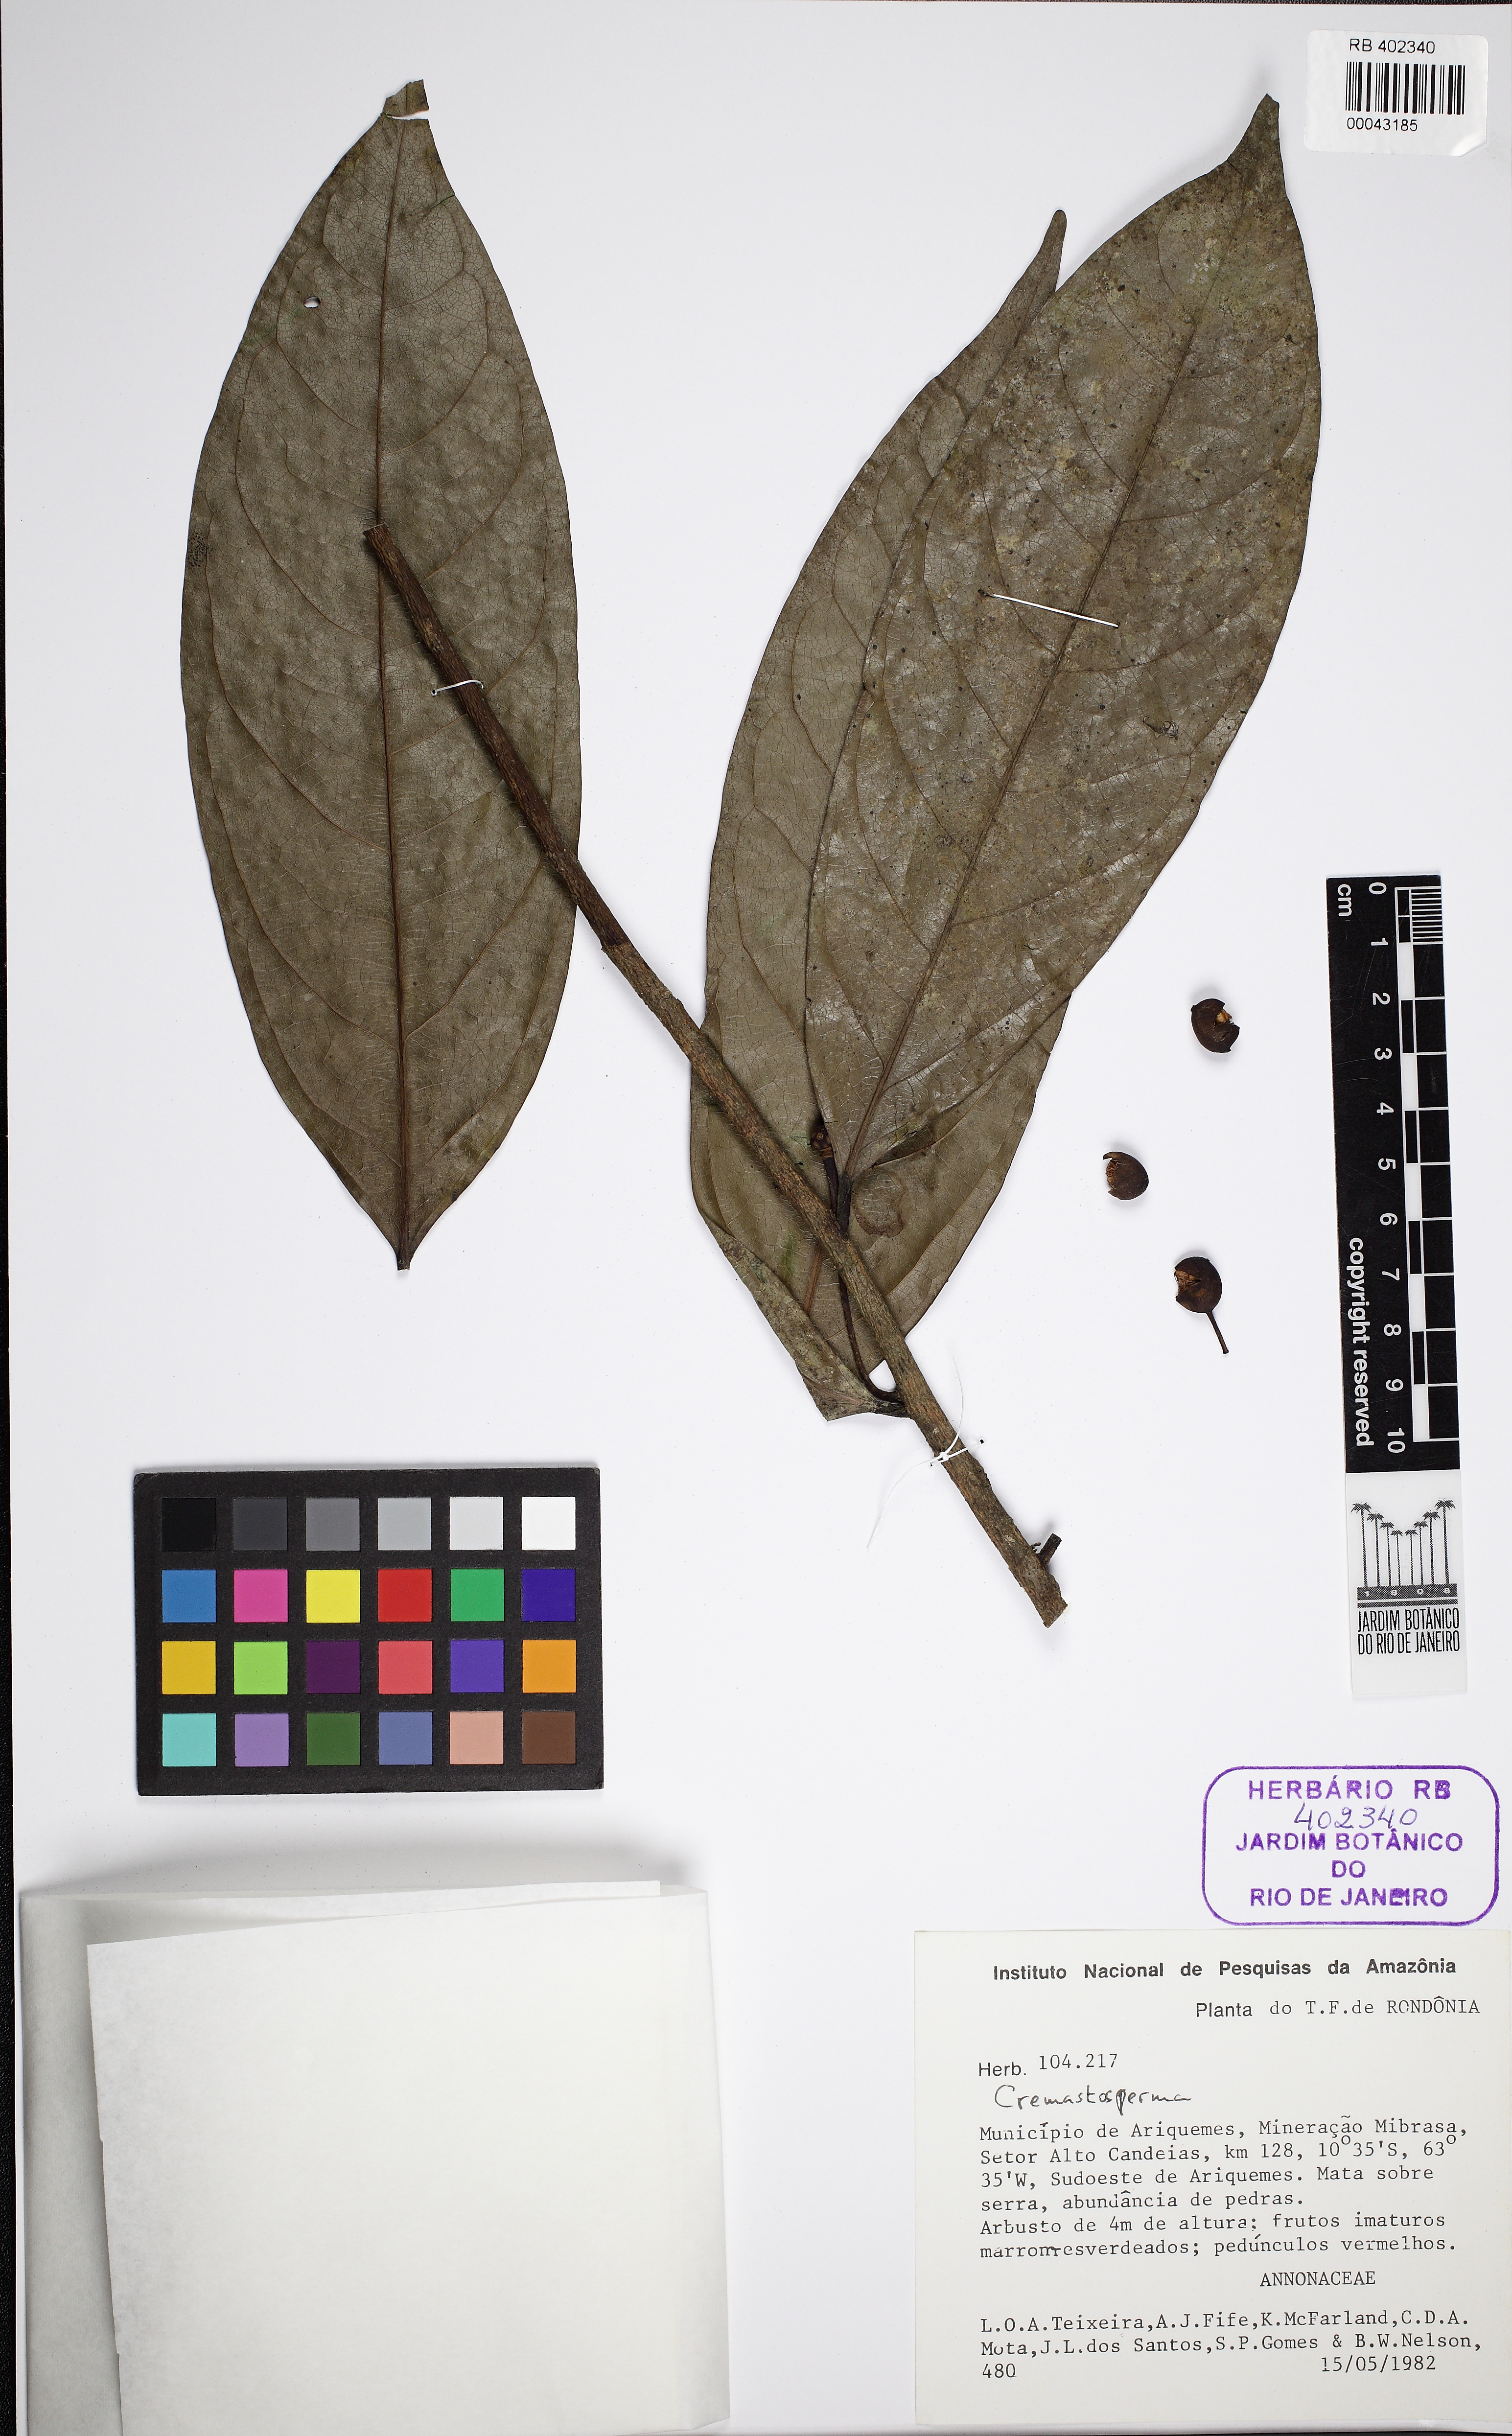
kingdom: Plantae
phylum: Tracheophyta
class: Magnoliopsida
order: Magnoliales
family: Annonaceae
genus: Cremastosperma
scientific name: Cremastosperma monospermum
